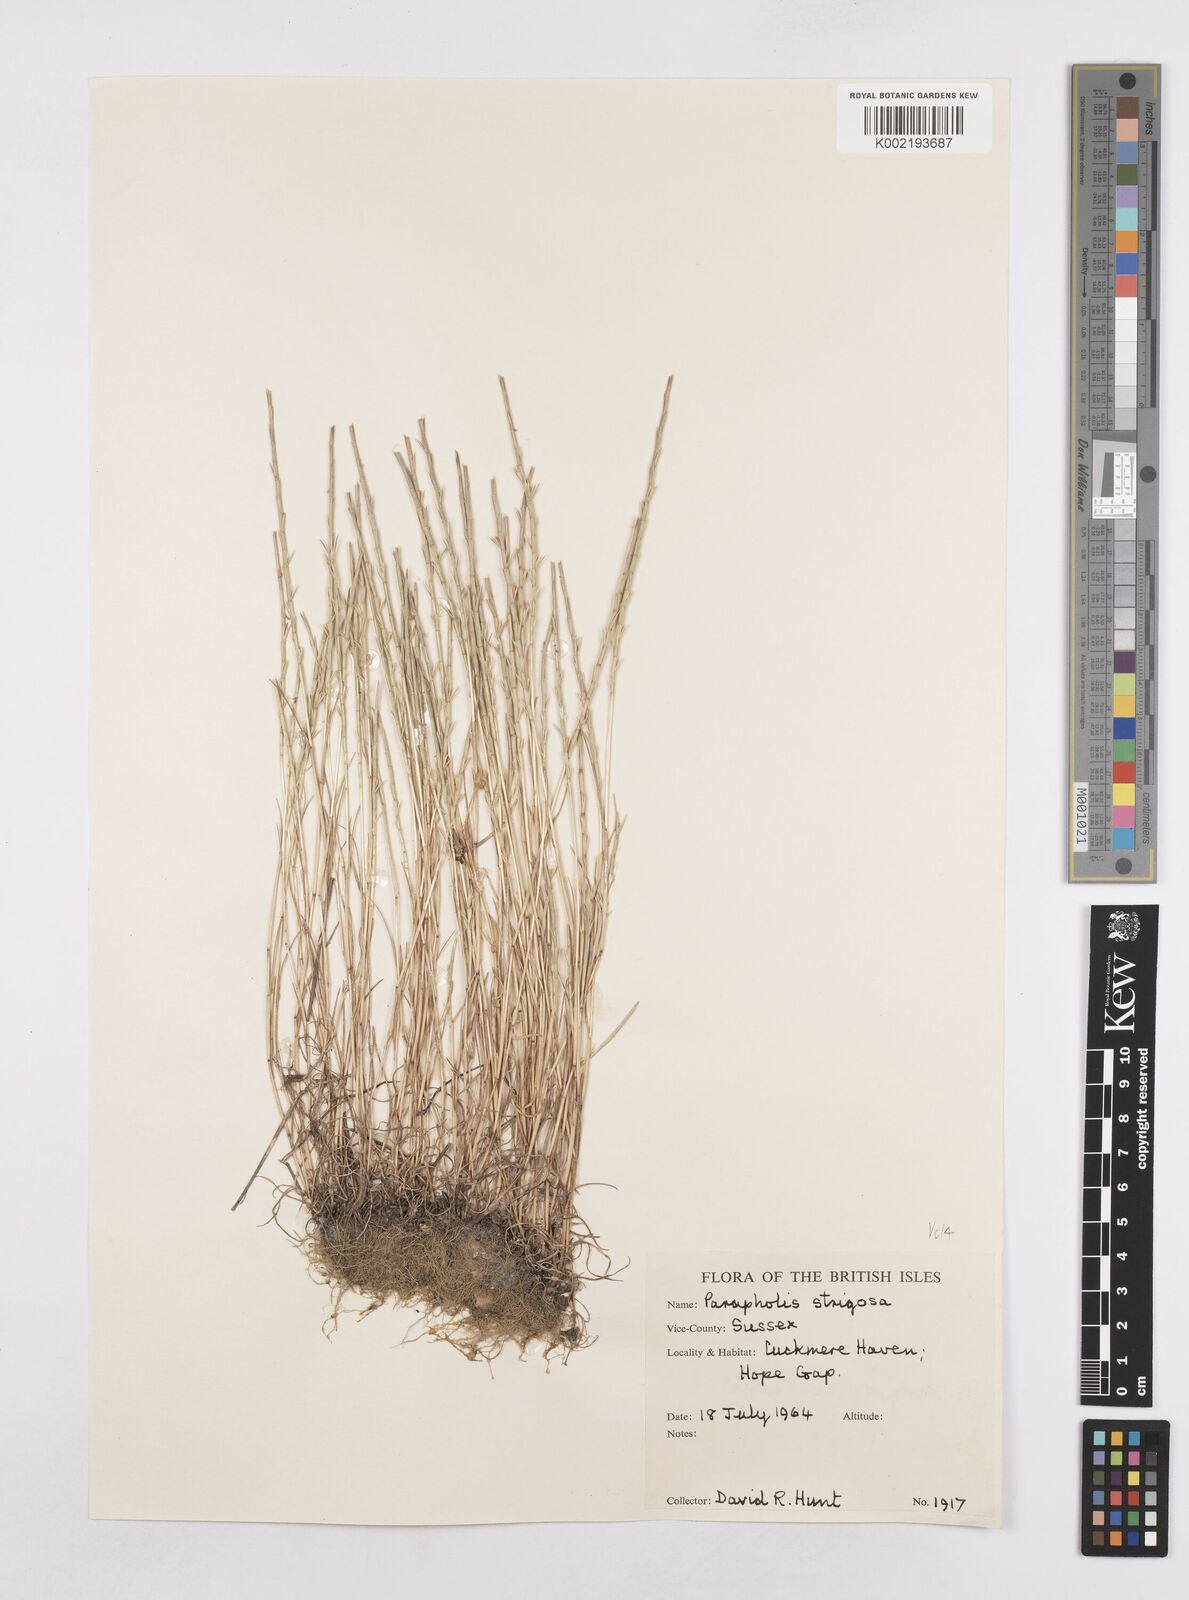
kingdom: Plantae
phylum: Tracheophyta
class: Liliopsida
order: Poales
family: Poaceae
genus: Parapholis
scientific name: Parapholis strigosa
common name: Hard-grass
